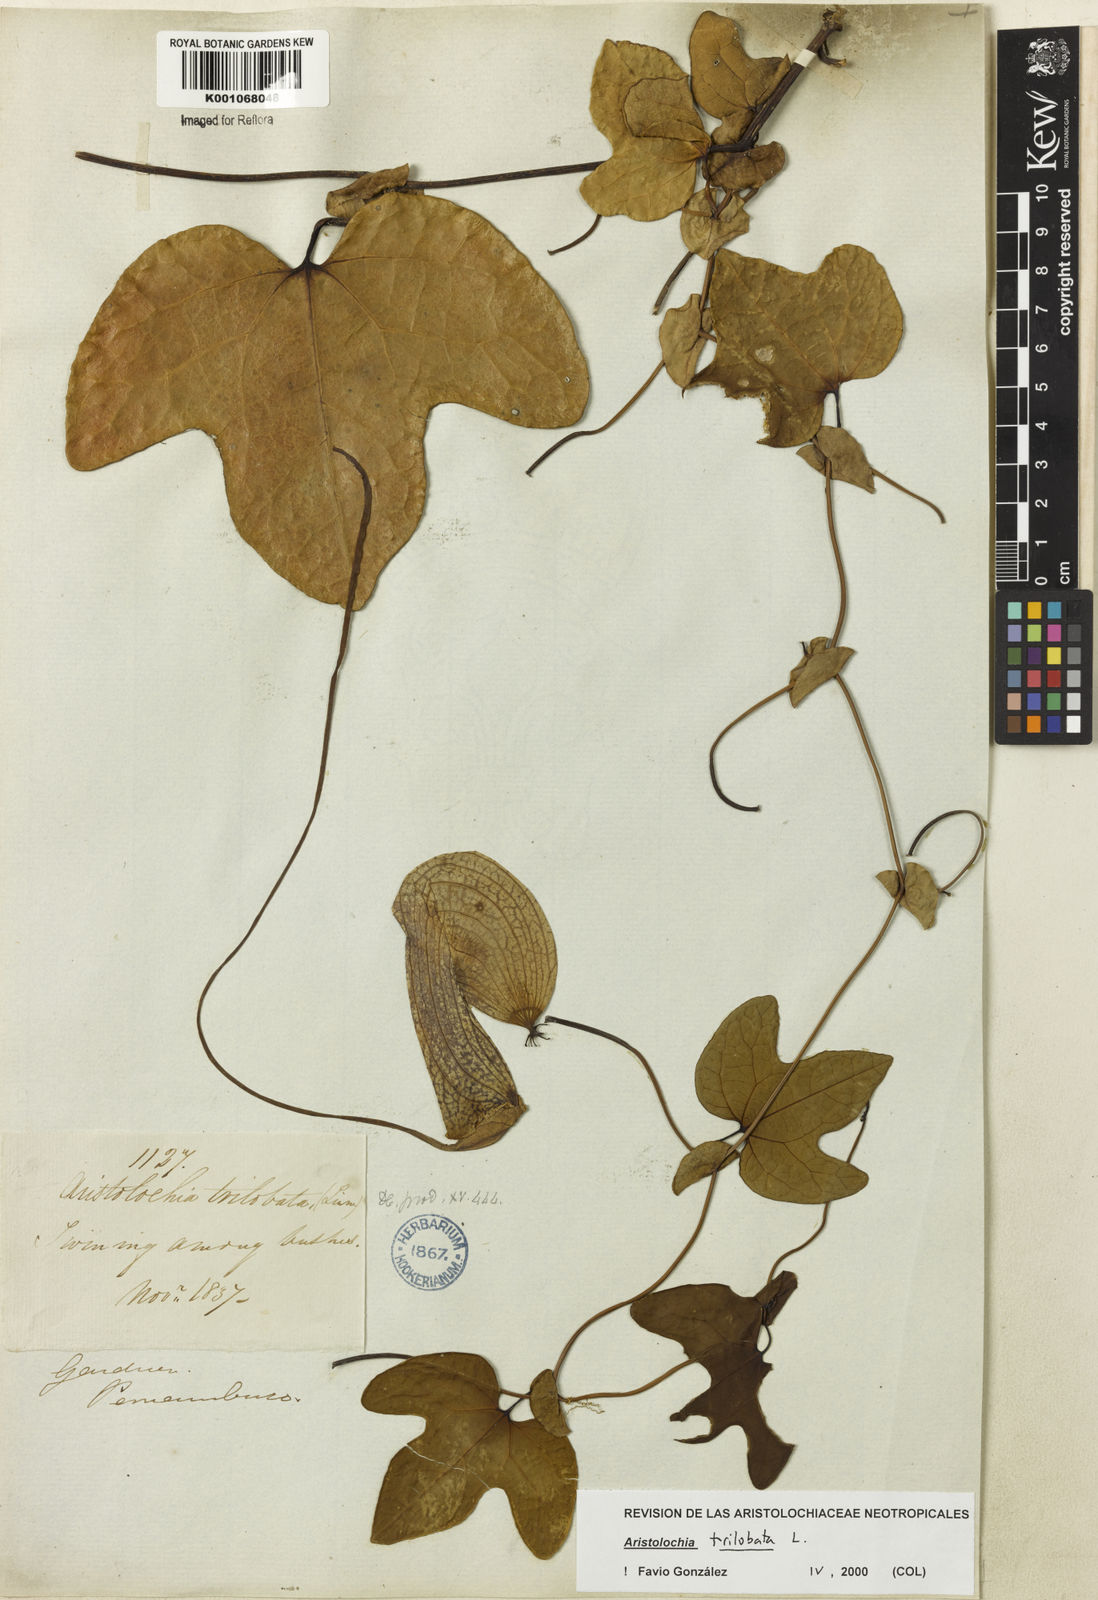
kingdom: Plantae
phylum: Tracheophyta
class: Magnoliopsida
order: Piperales
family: Aristolochiaceae
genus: Aristolochia
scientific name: Aristolochia trilobata
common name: Dutchman's pipe
